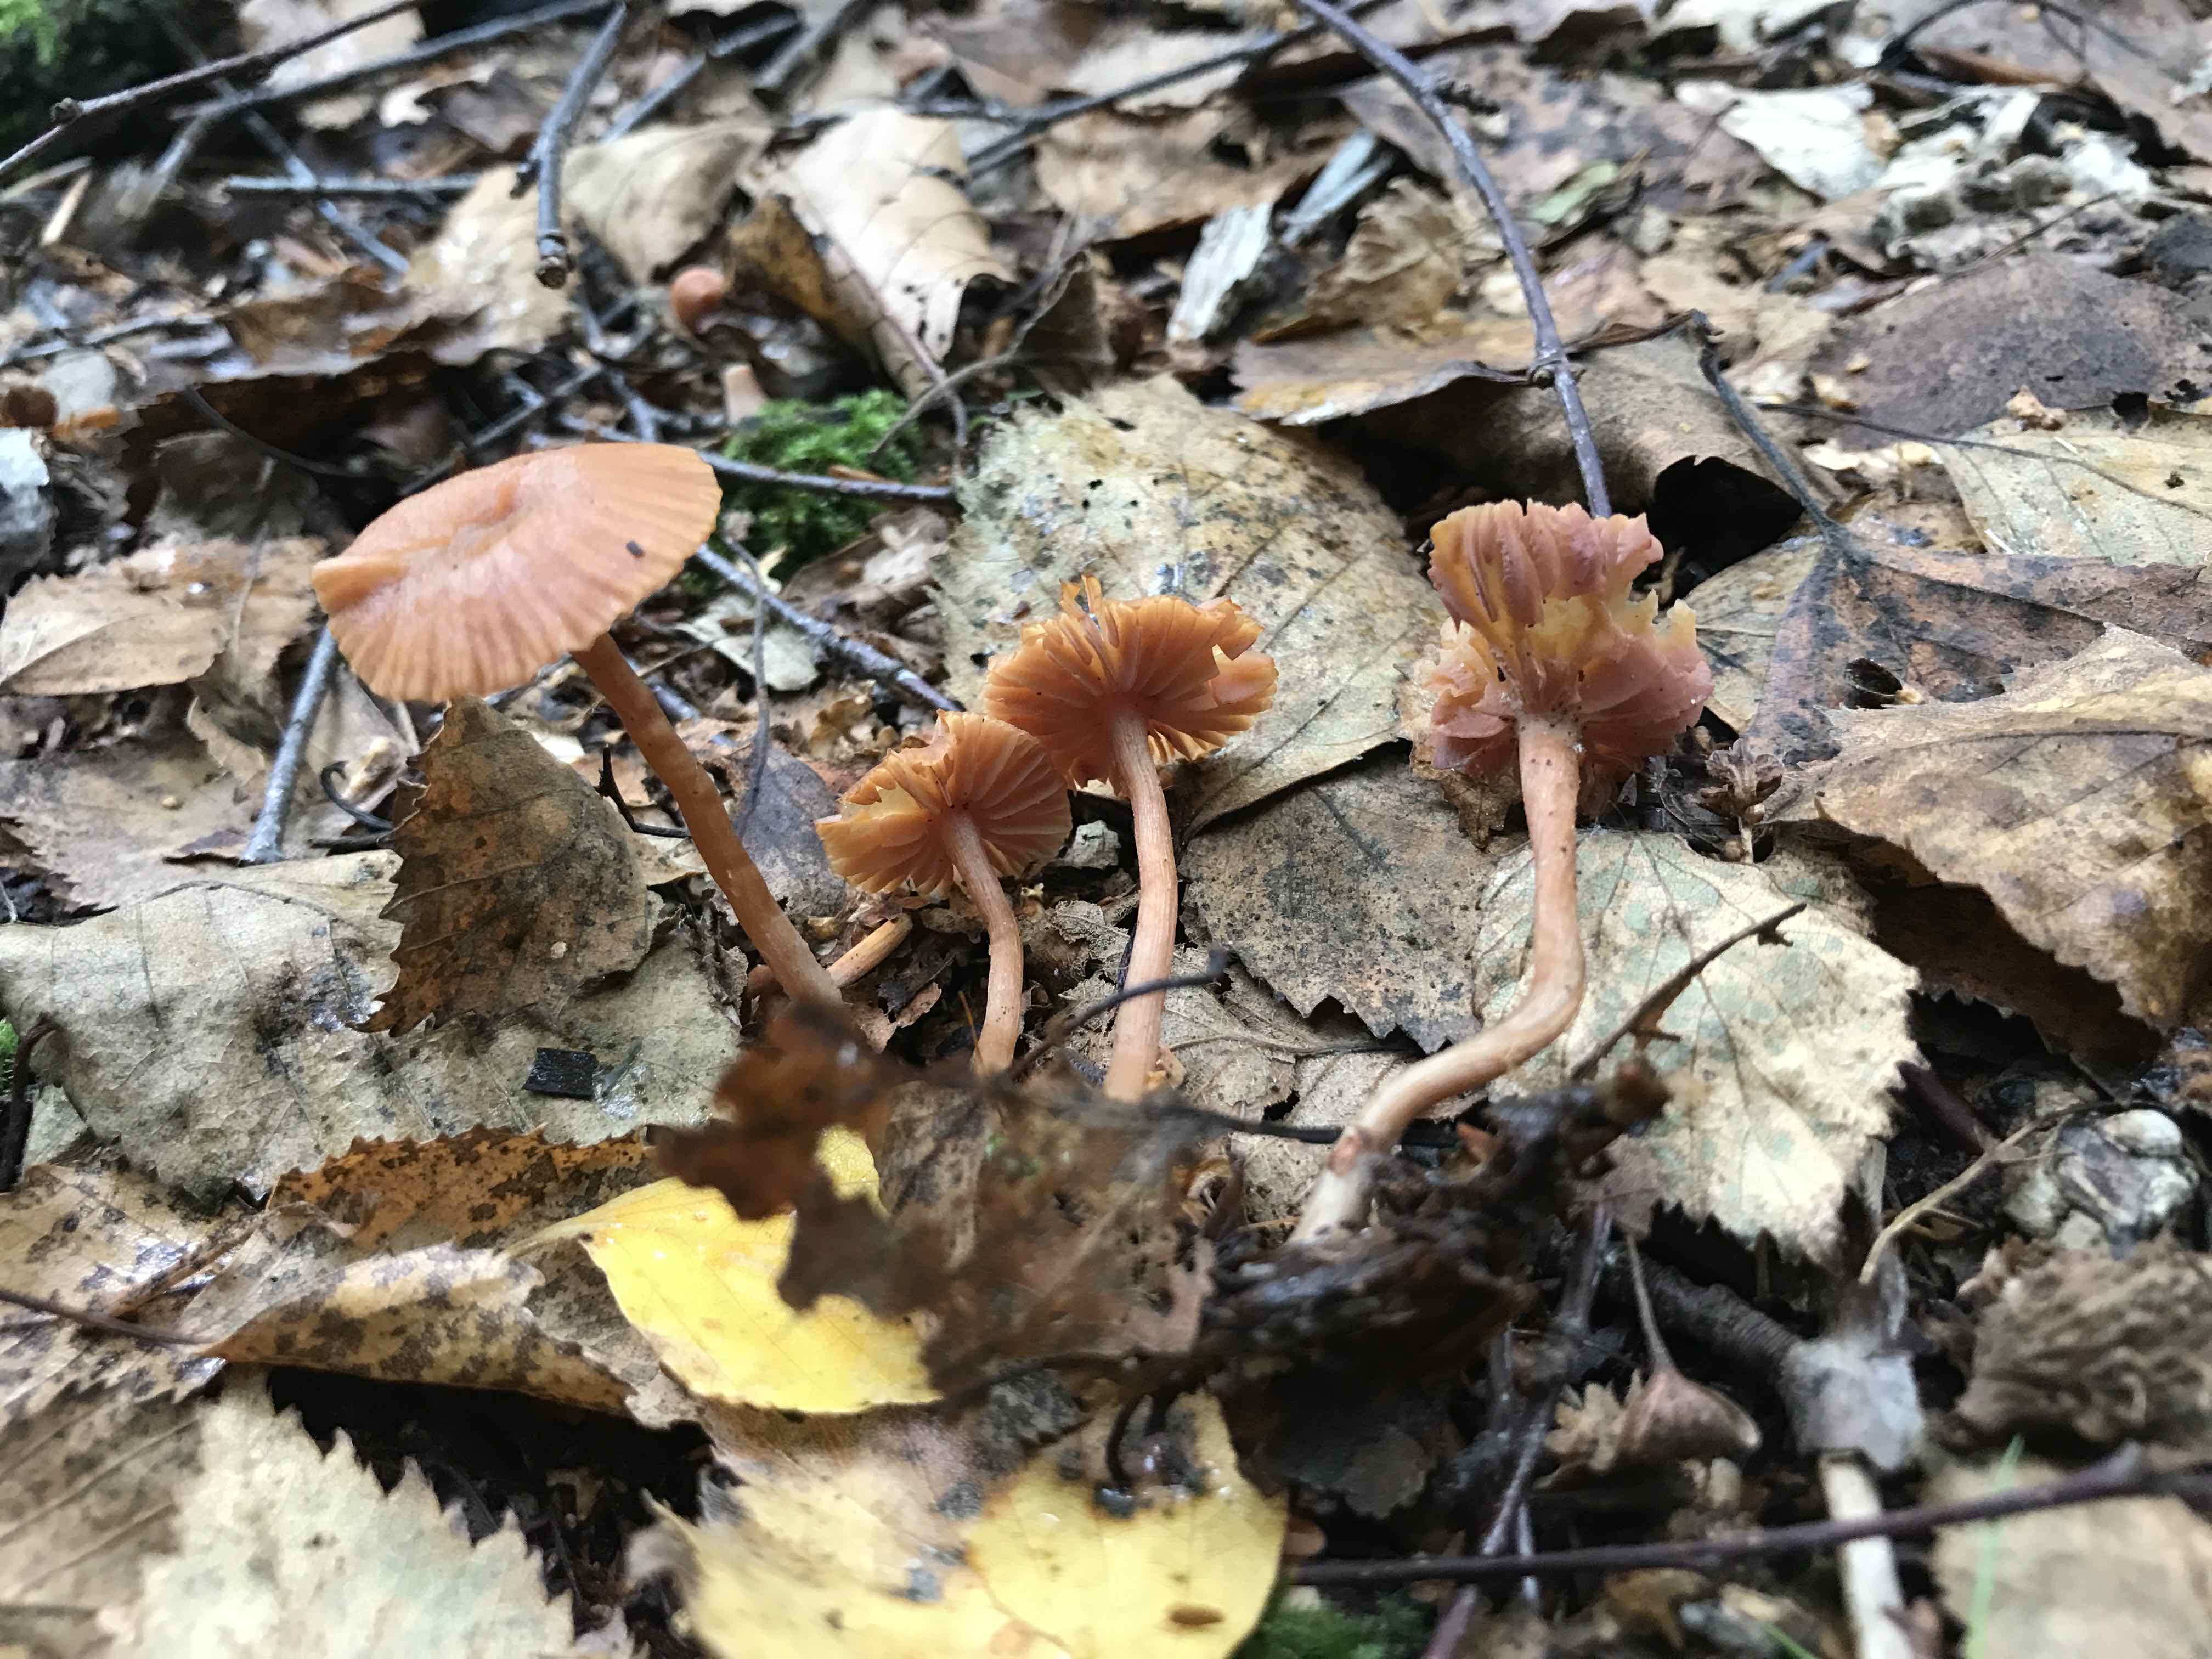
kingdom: Fungi
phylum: Basidiomycota
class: Agaricomycetes
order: Agaricales
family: Hydnangiaceae
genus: Laccaria
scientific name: Laccaria laccata
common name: rød ametysthat
